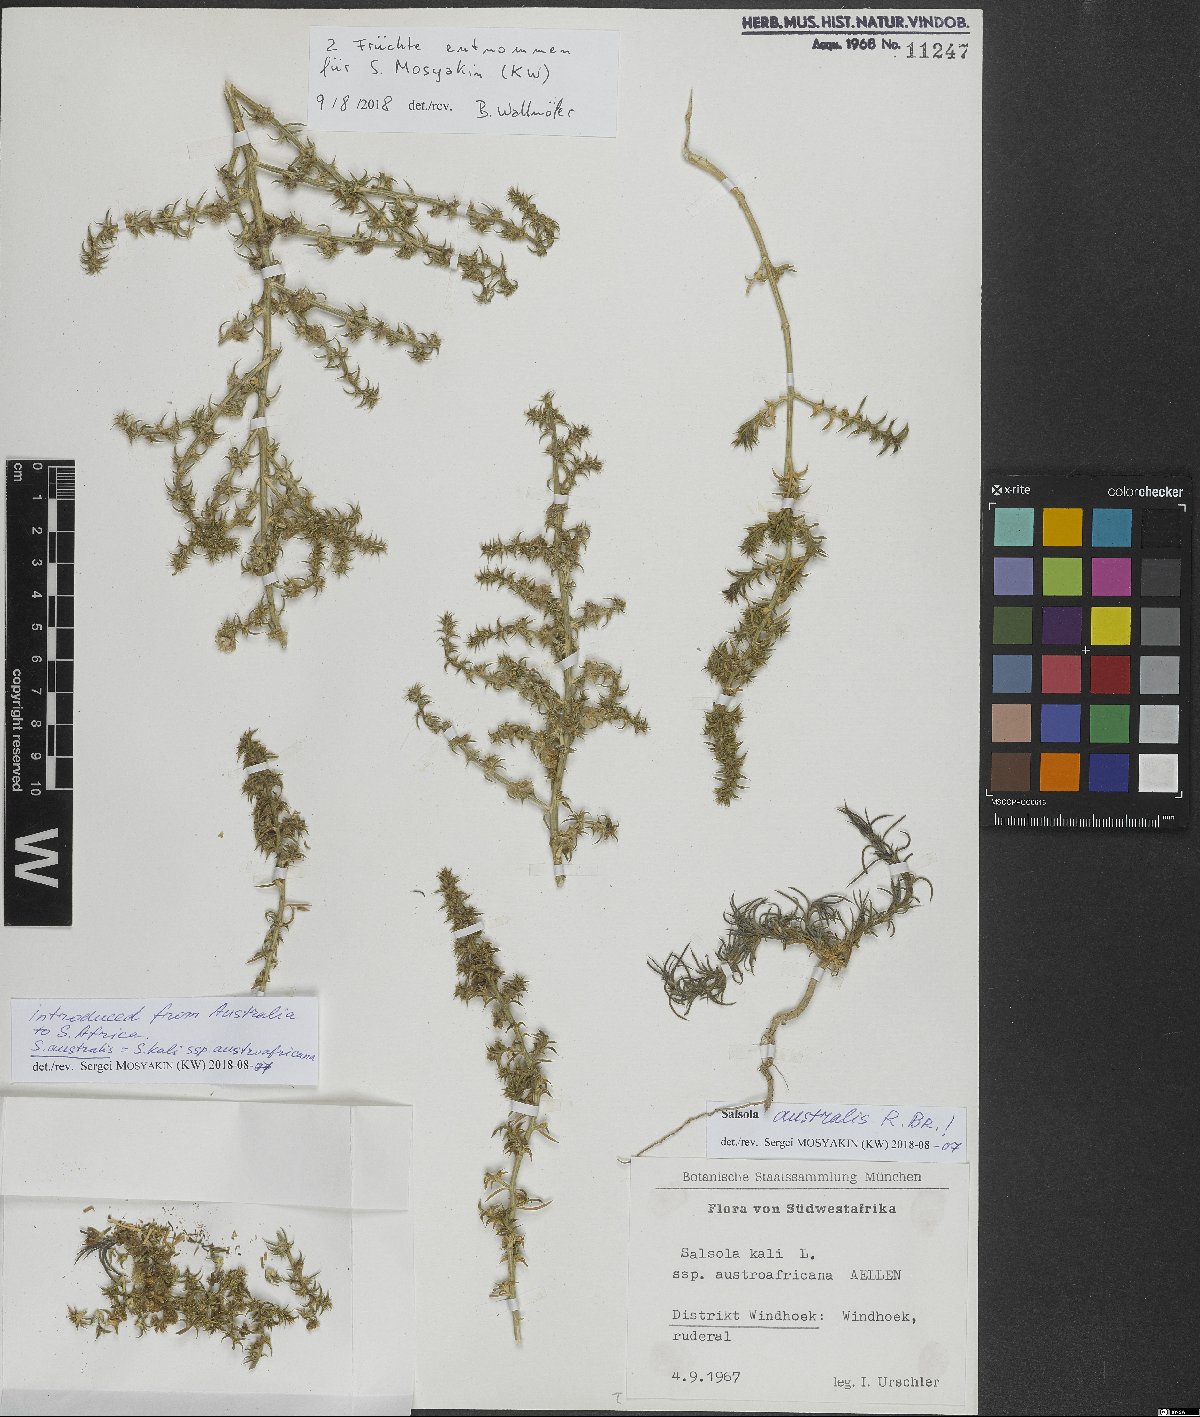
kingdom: Plantae
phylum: Tracheophyta
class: Magnoliopsida
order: Caryophyllales
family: Amaranthaceae
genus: Salsola
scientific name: Salsola kali
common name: Saltwort
